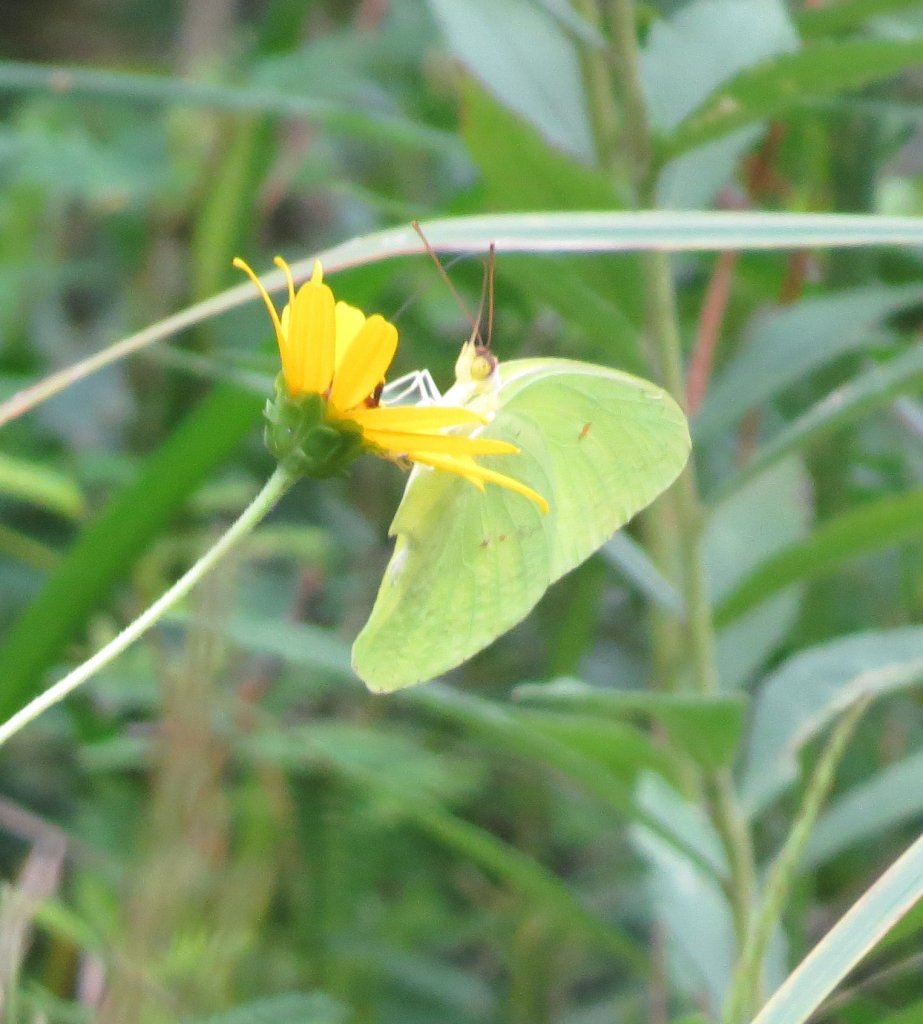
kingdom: Animalia
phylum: Arthropoda
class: Insecta
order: Lepidoptera
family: Pieridae
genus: Phoebis
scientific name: Phoebis sennae
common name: Cloudless Sulphur
